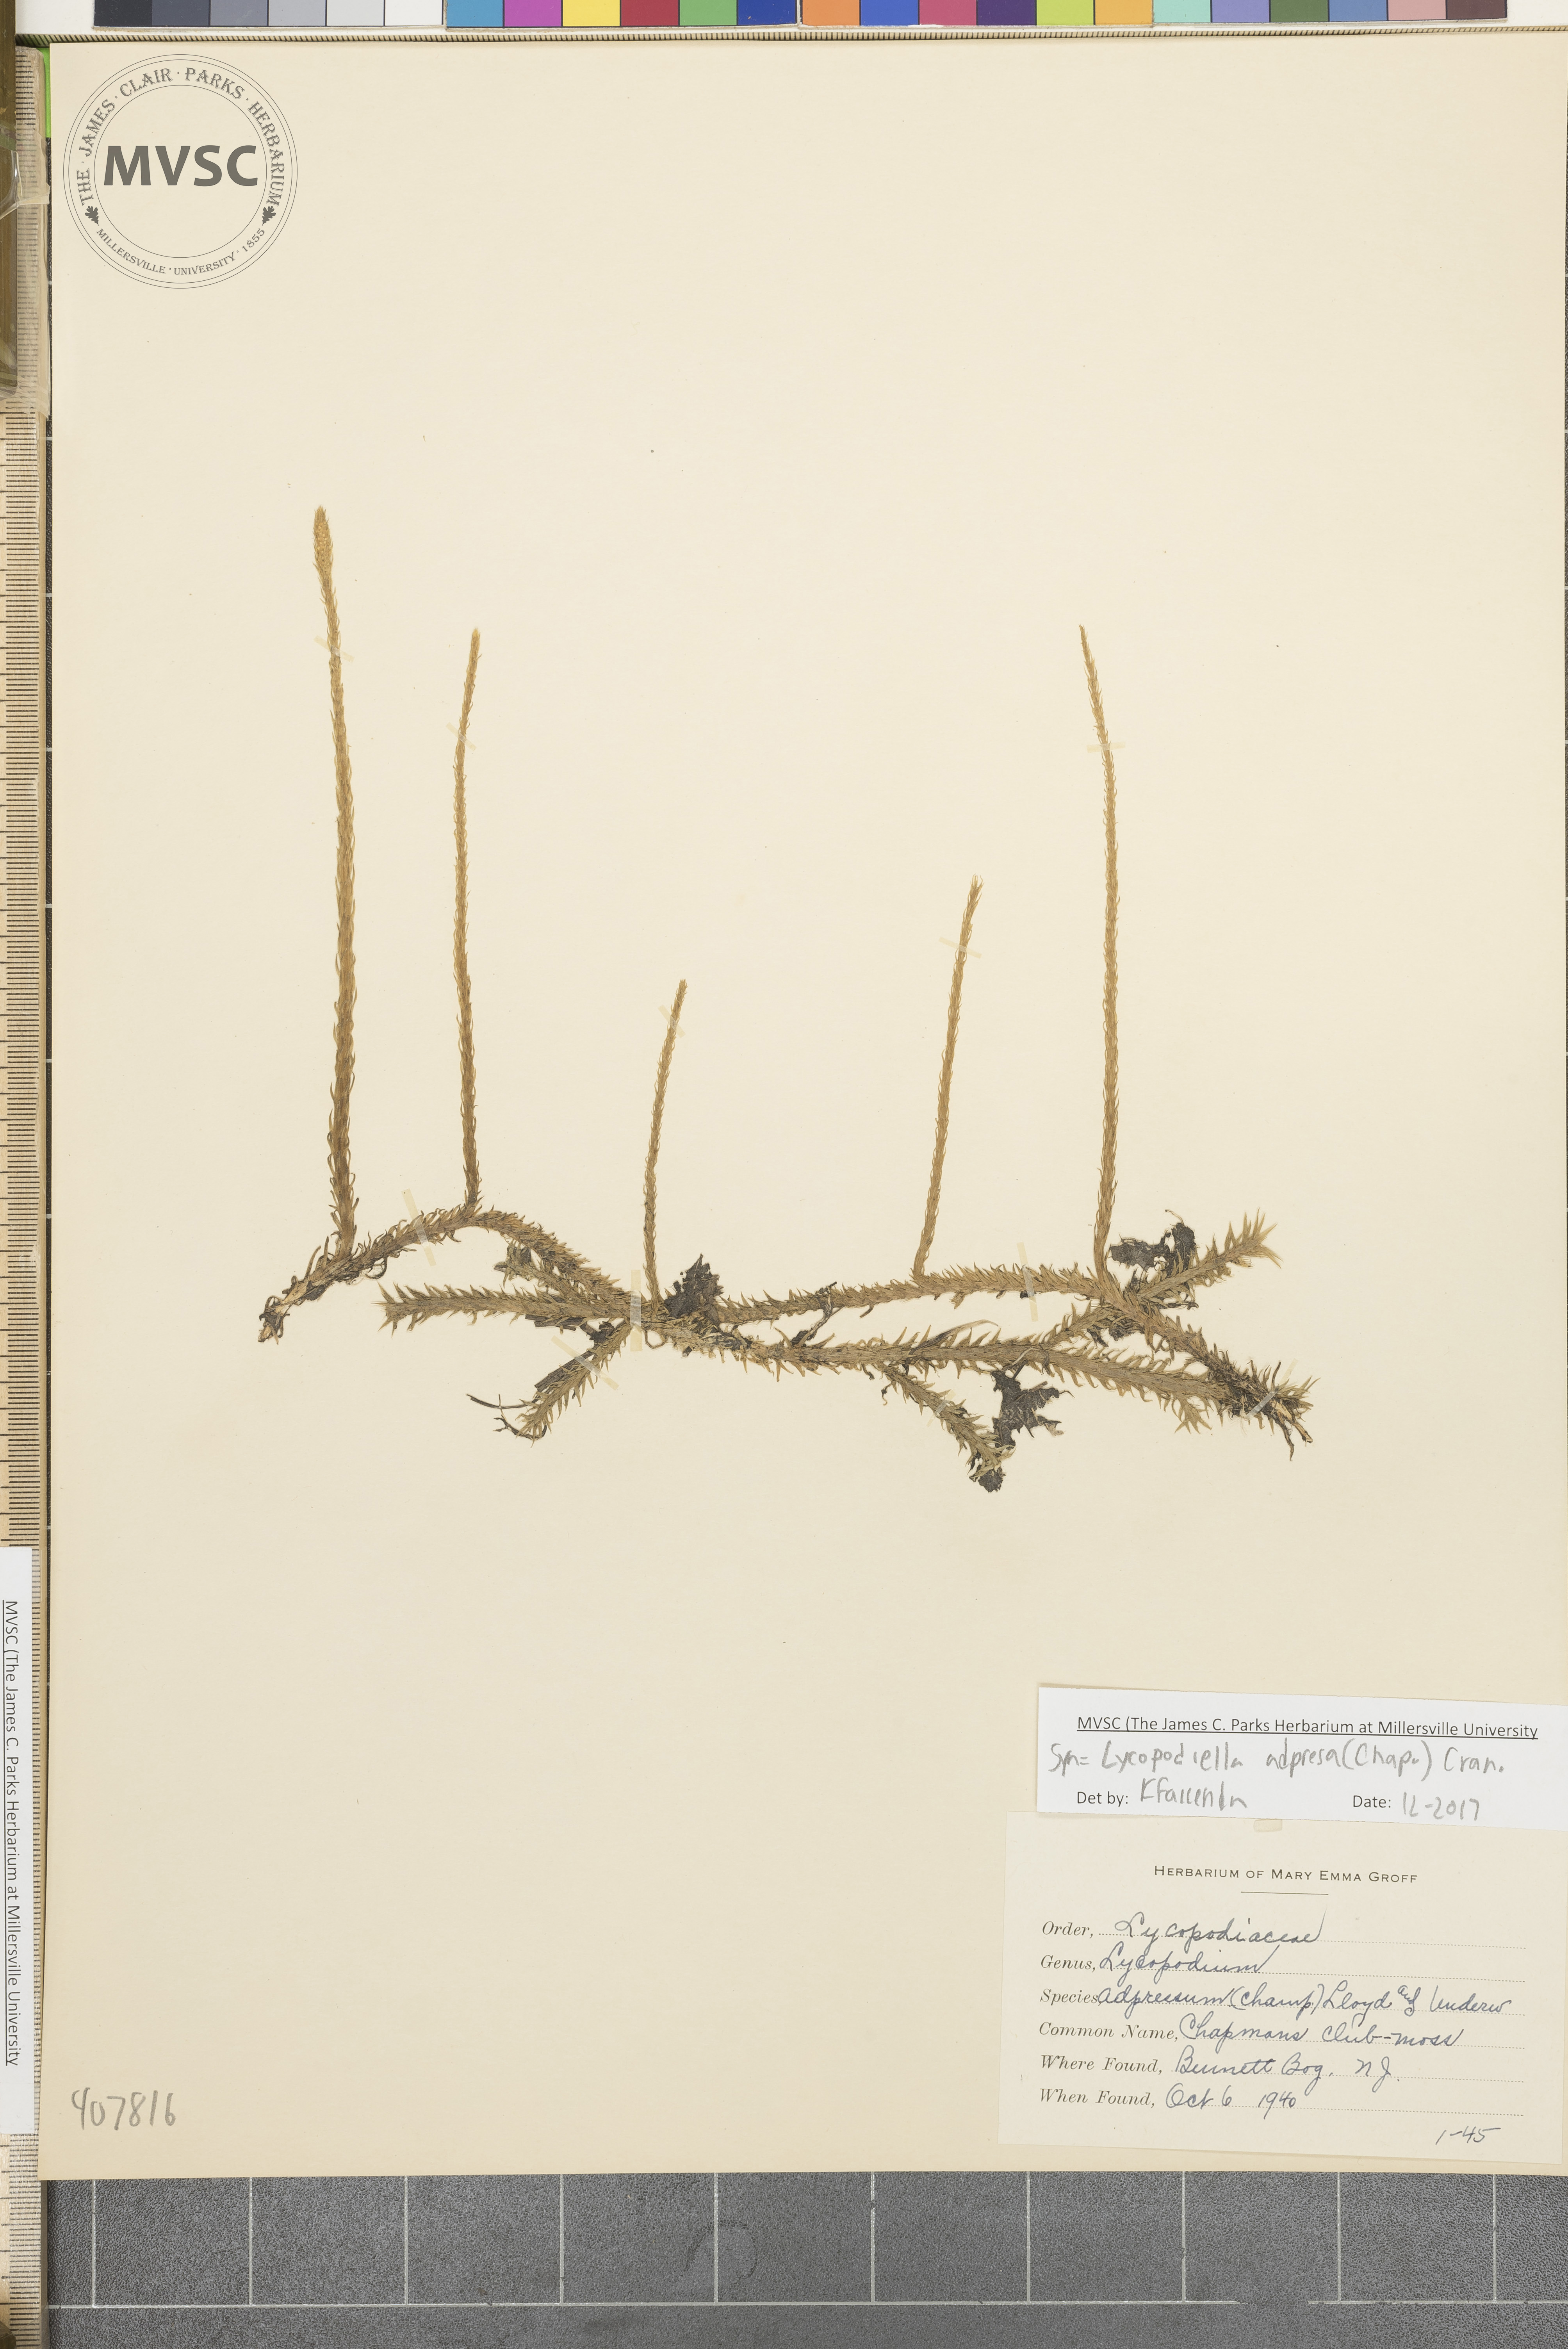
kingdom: Plantae
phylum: Tracheophyta
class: Lycopodiopsida
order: Lycopodiales
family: Lycopodiaceae
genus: Lycopodiella
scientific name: Lycopodiella appressa
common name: Appressed bog clubmoss
